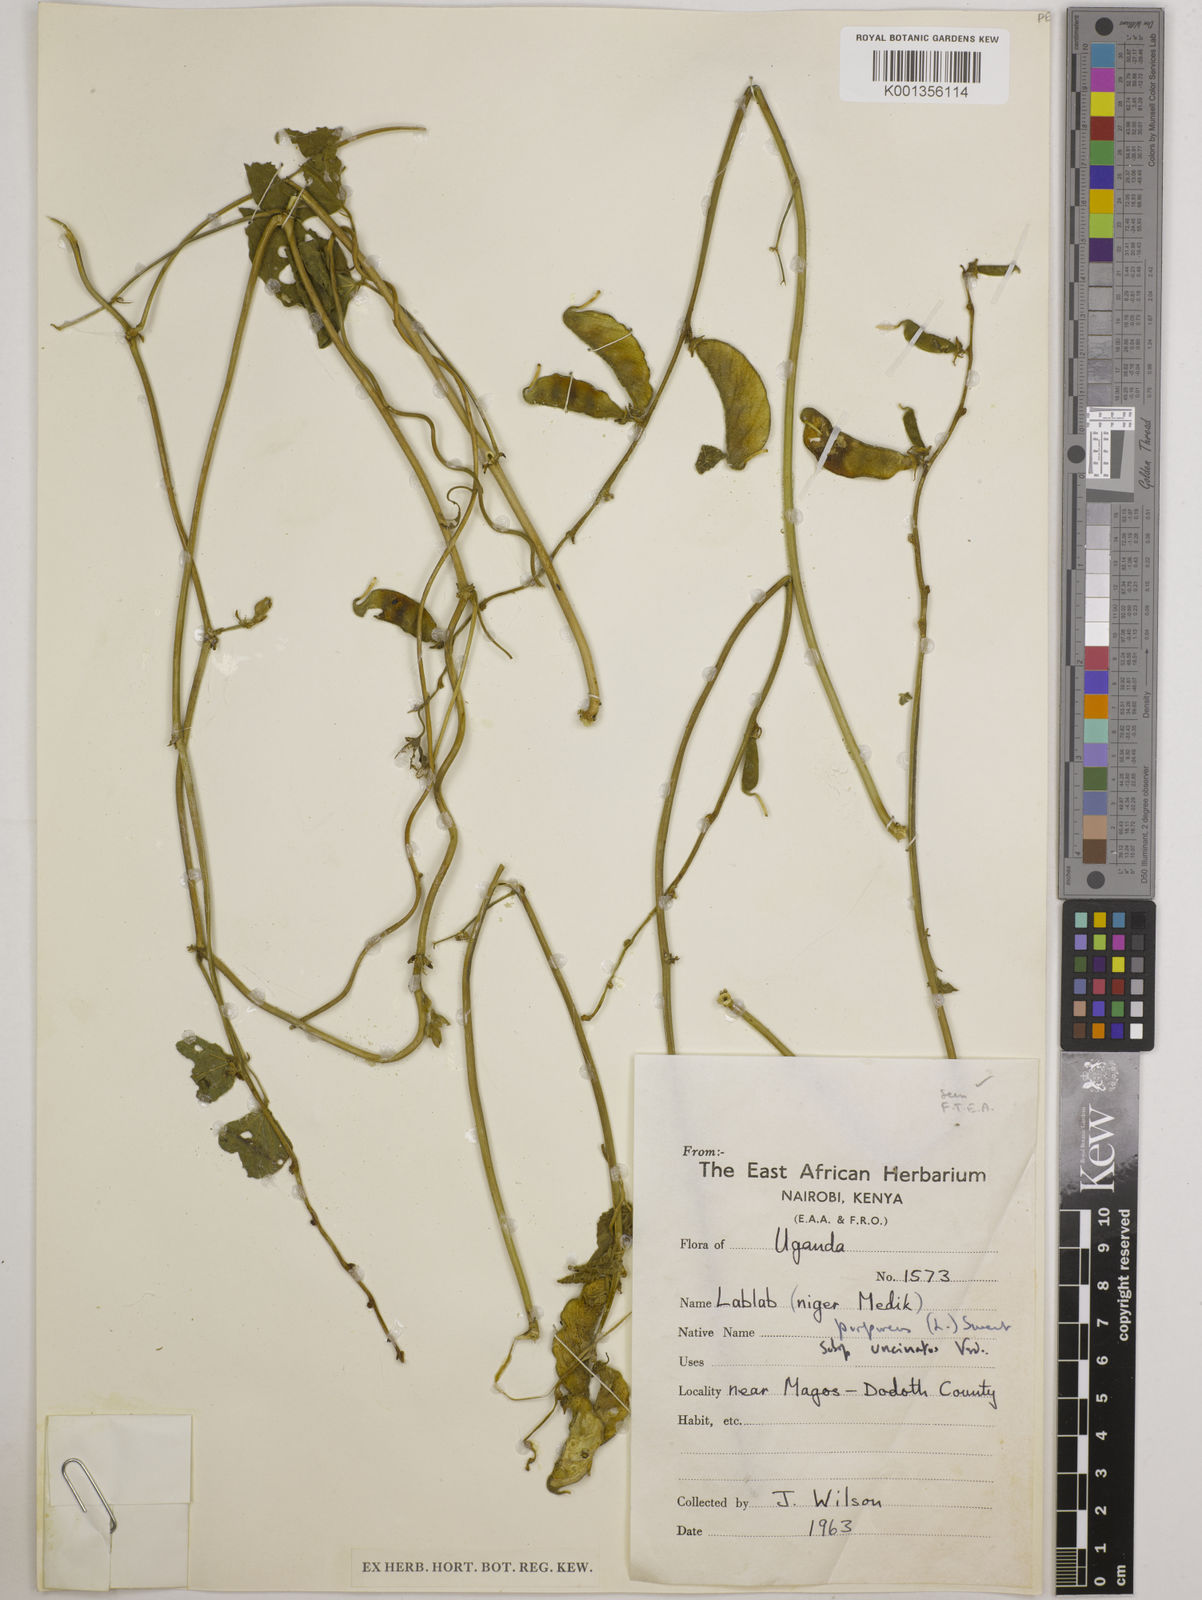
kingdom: Plantae
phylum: Tracheophyta
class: Magnoliopsida
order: Fabales
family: Fabaceae
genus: Lablab
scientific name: Lablab purpureus
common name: Lablab-bean
